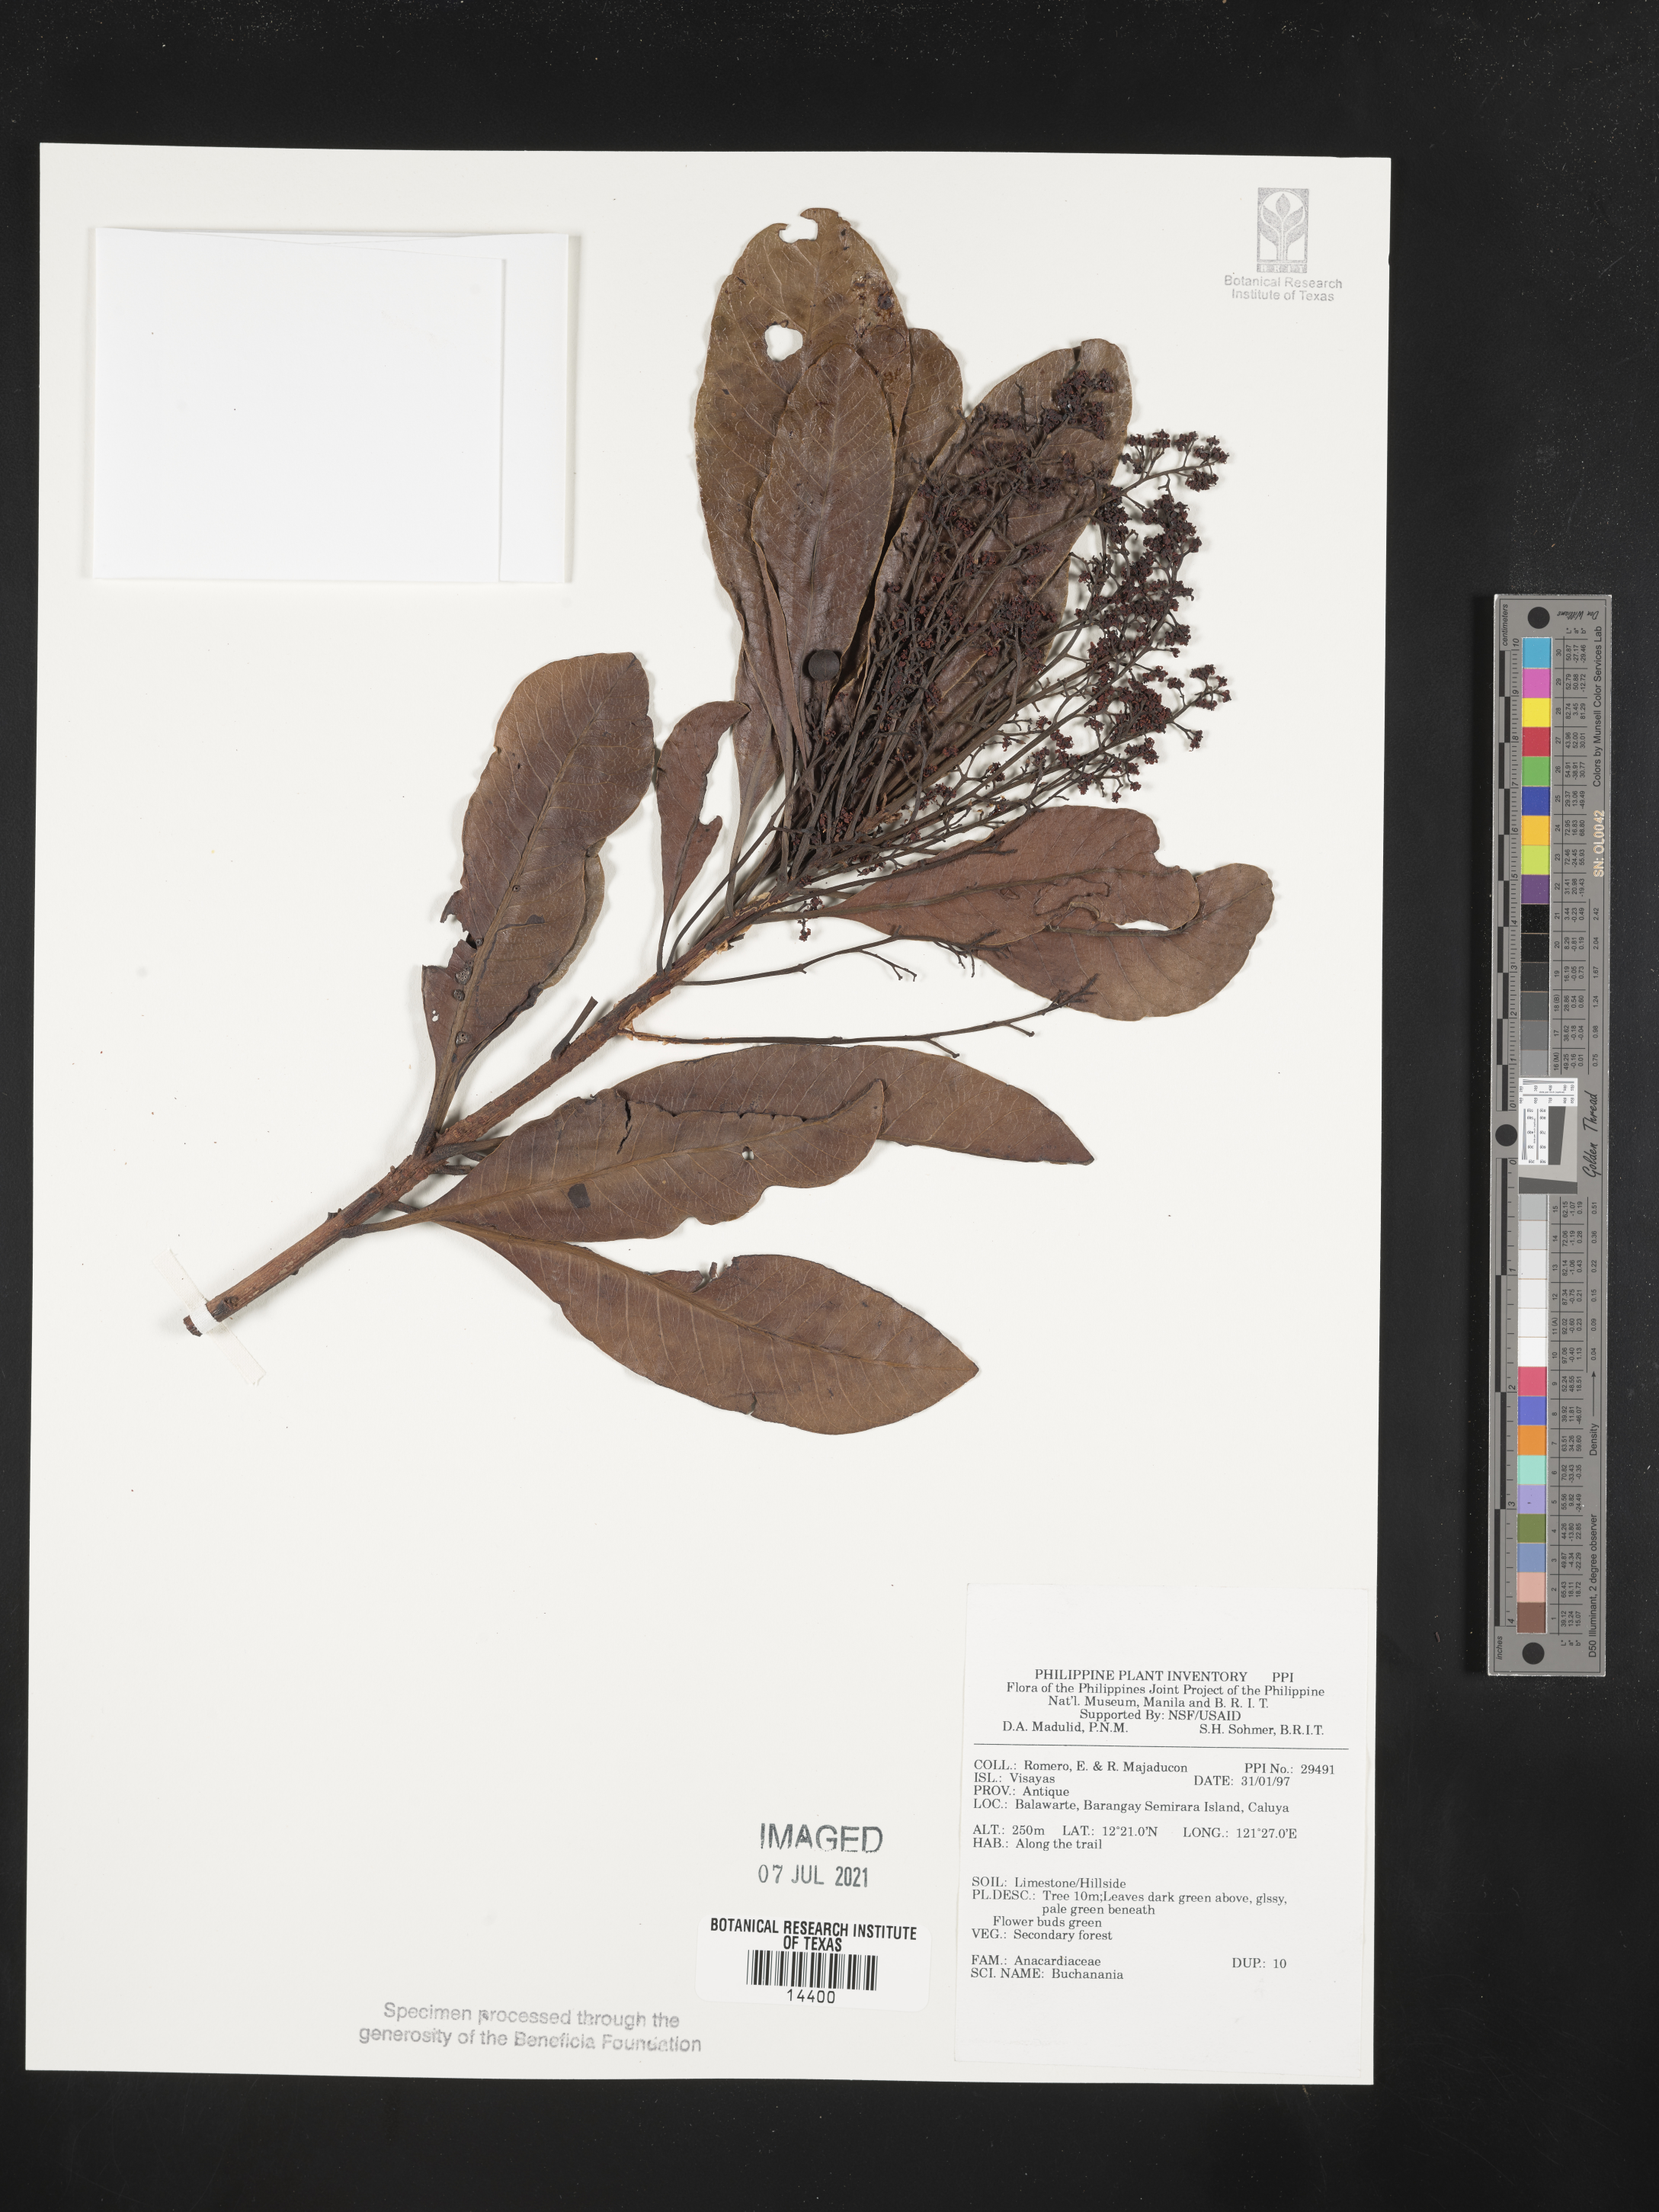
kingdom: Plantae
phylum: Tracheophyta
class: Magnoliopsida
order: Sapindales
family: Anacardiaceae
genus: Buchanania
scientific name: Buchanania
